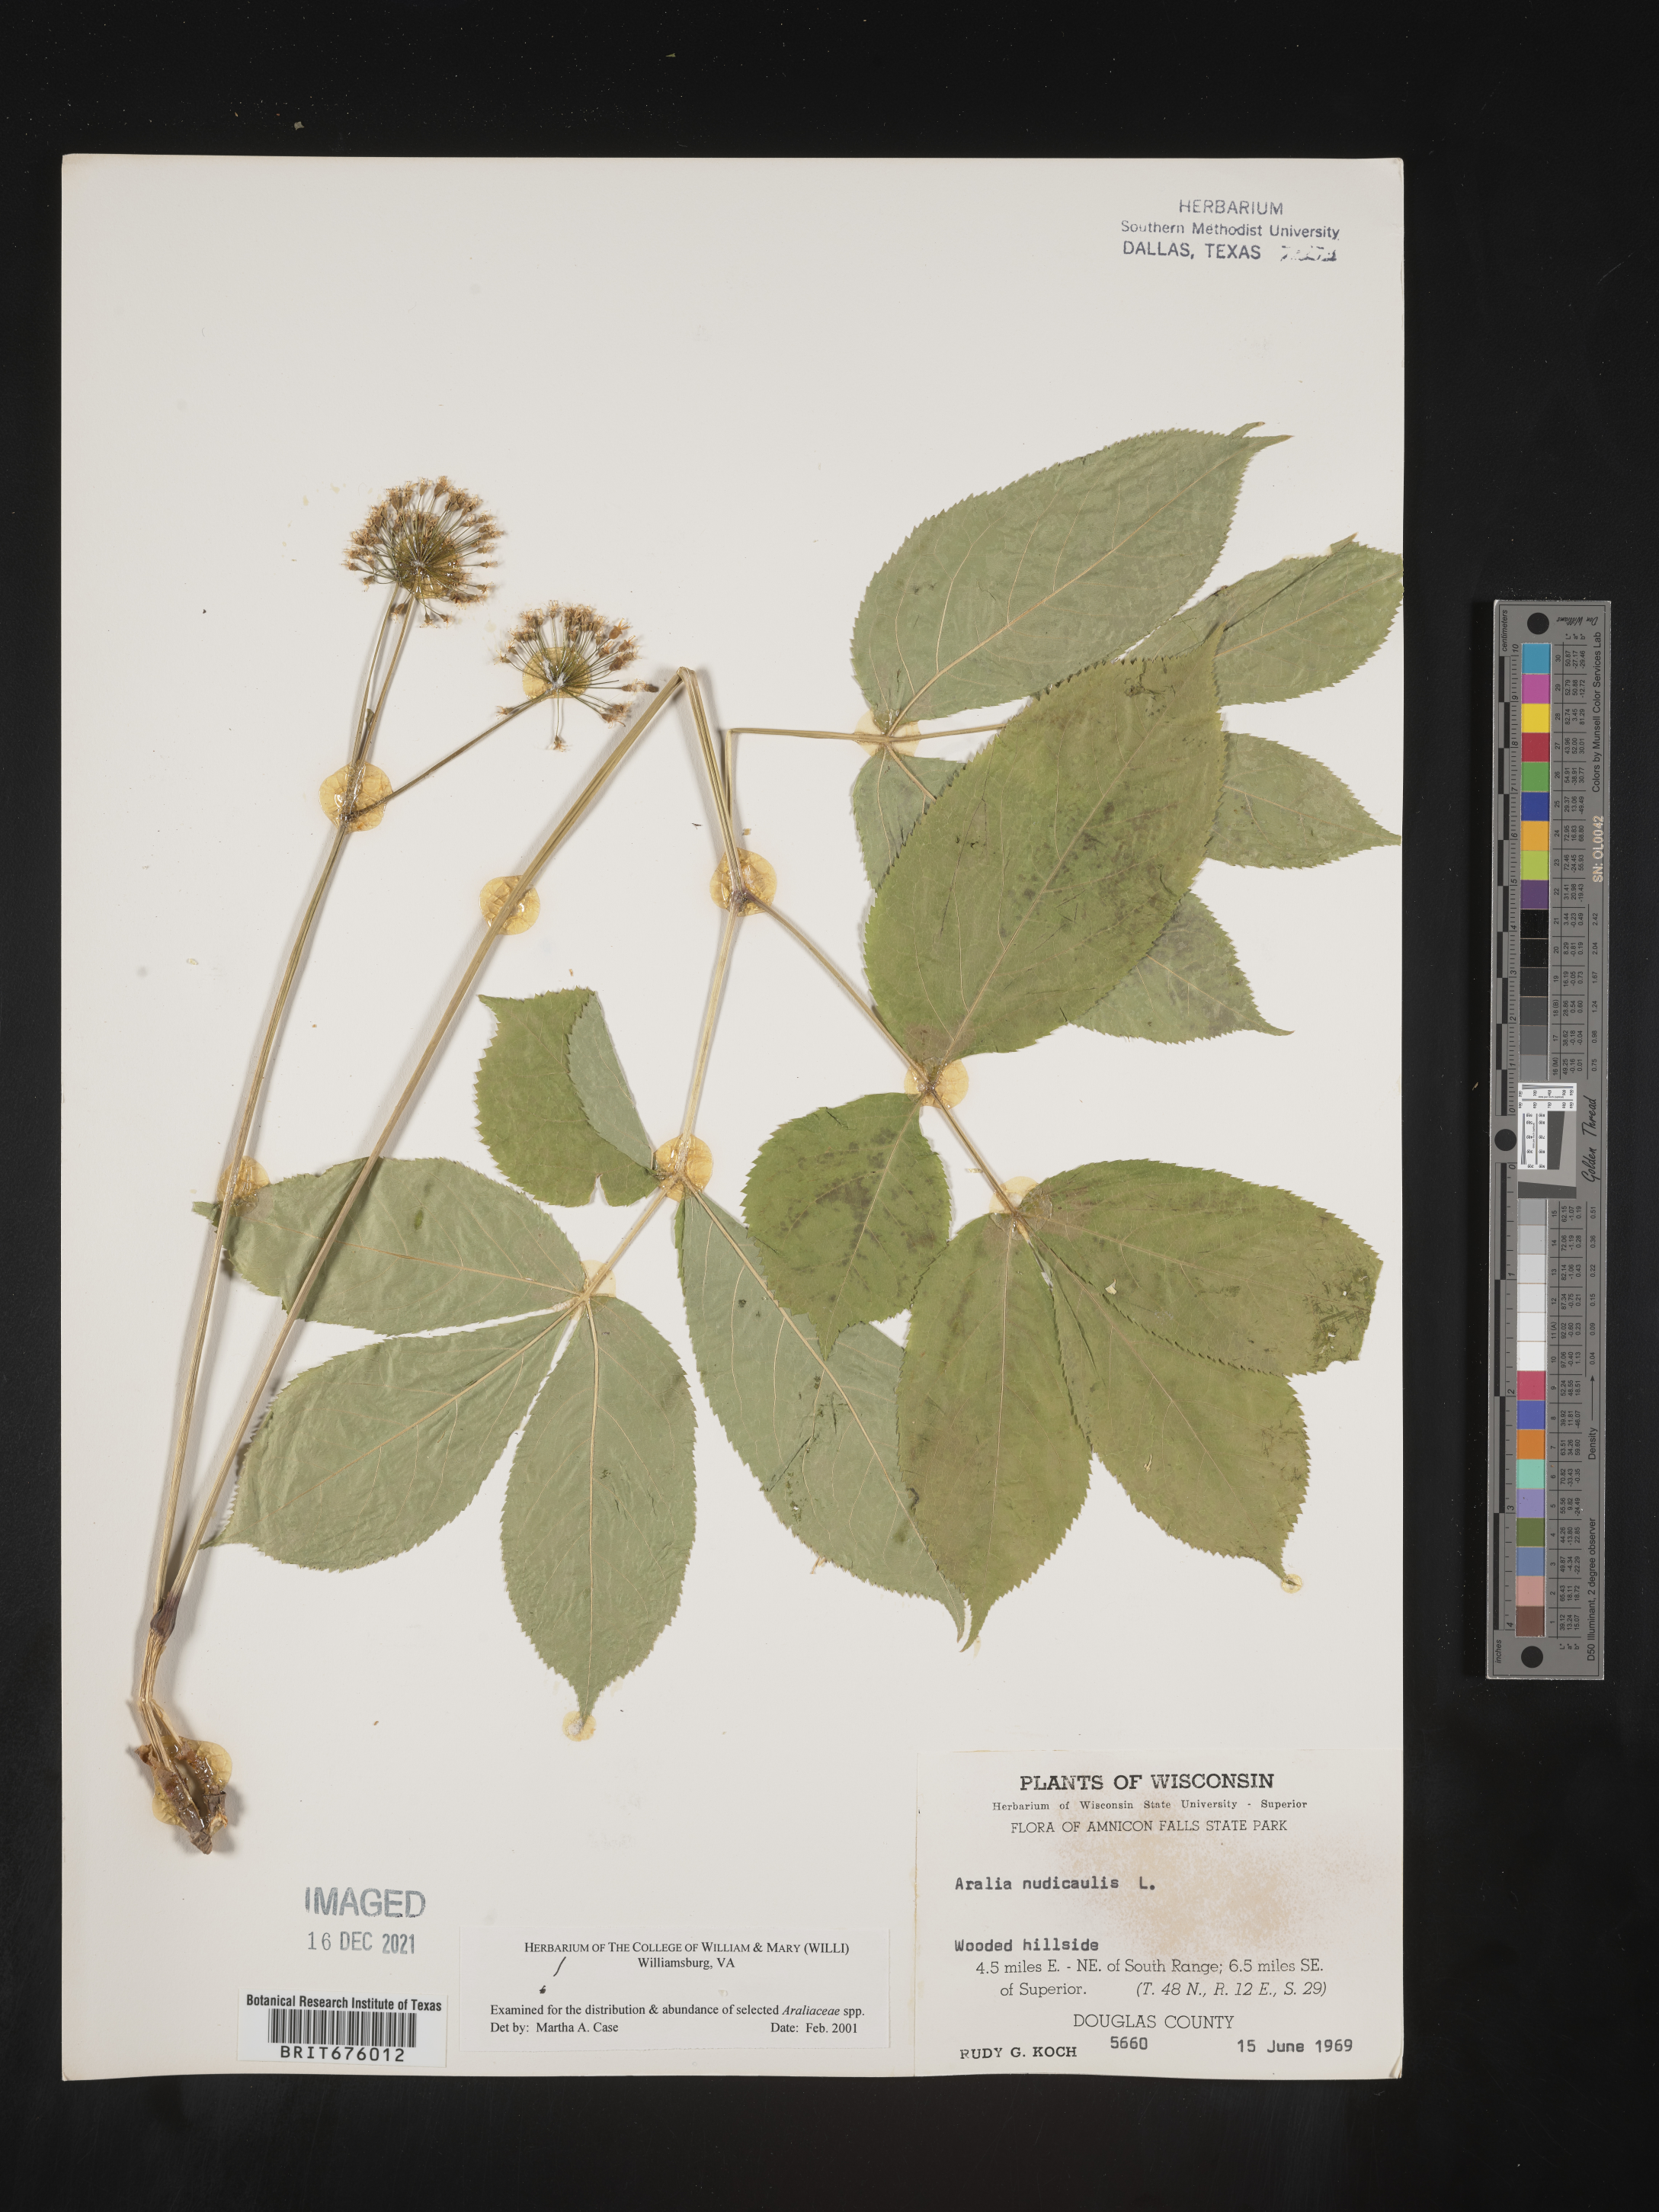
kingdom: Plantae
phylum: Tracheophyta
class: Magnoliopsida
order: Apiales
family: Araliaceae
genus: Aralia
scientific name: Aralia nudicaulis
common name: Wild sarsaparilla
